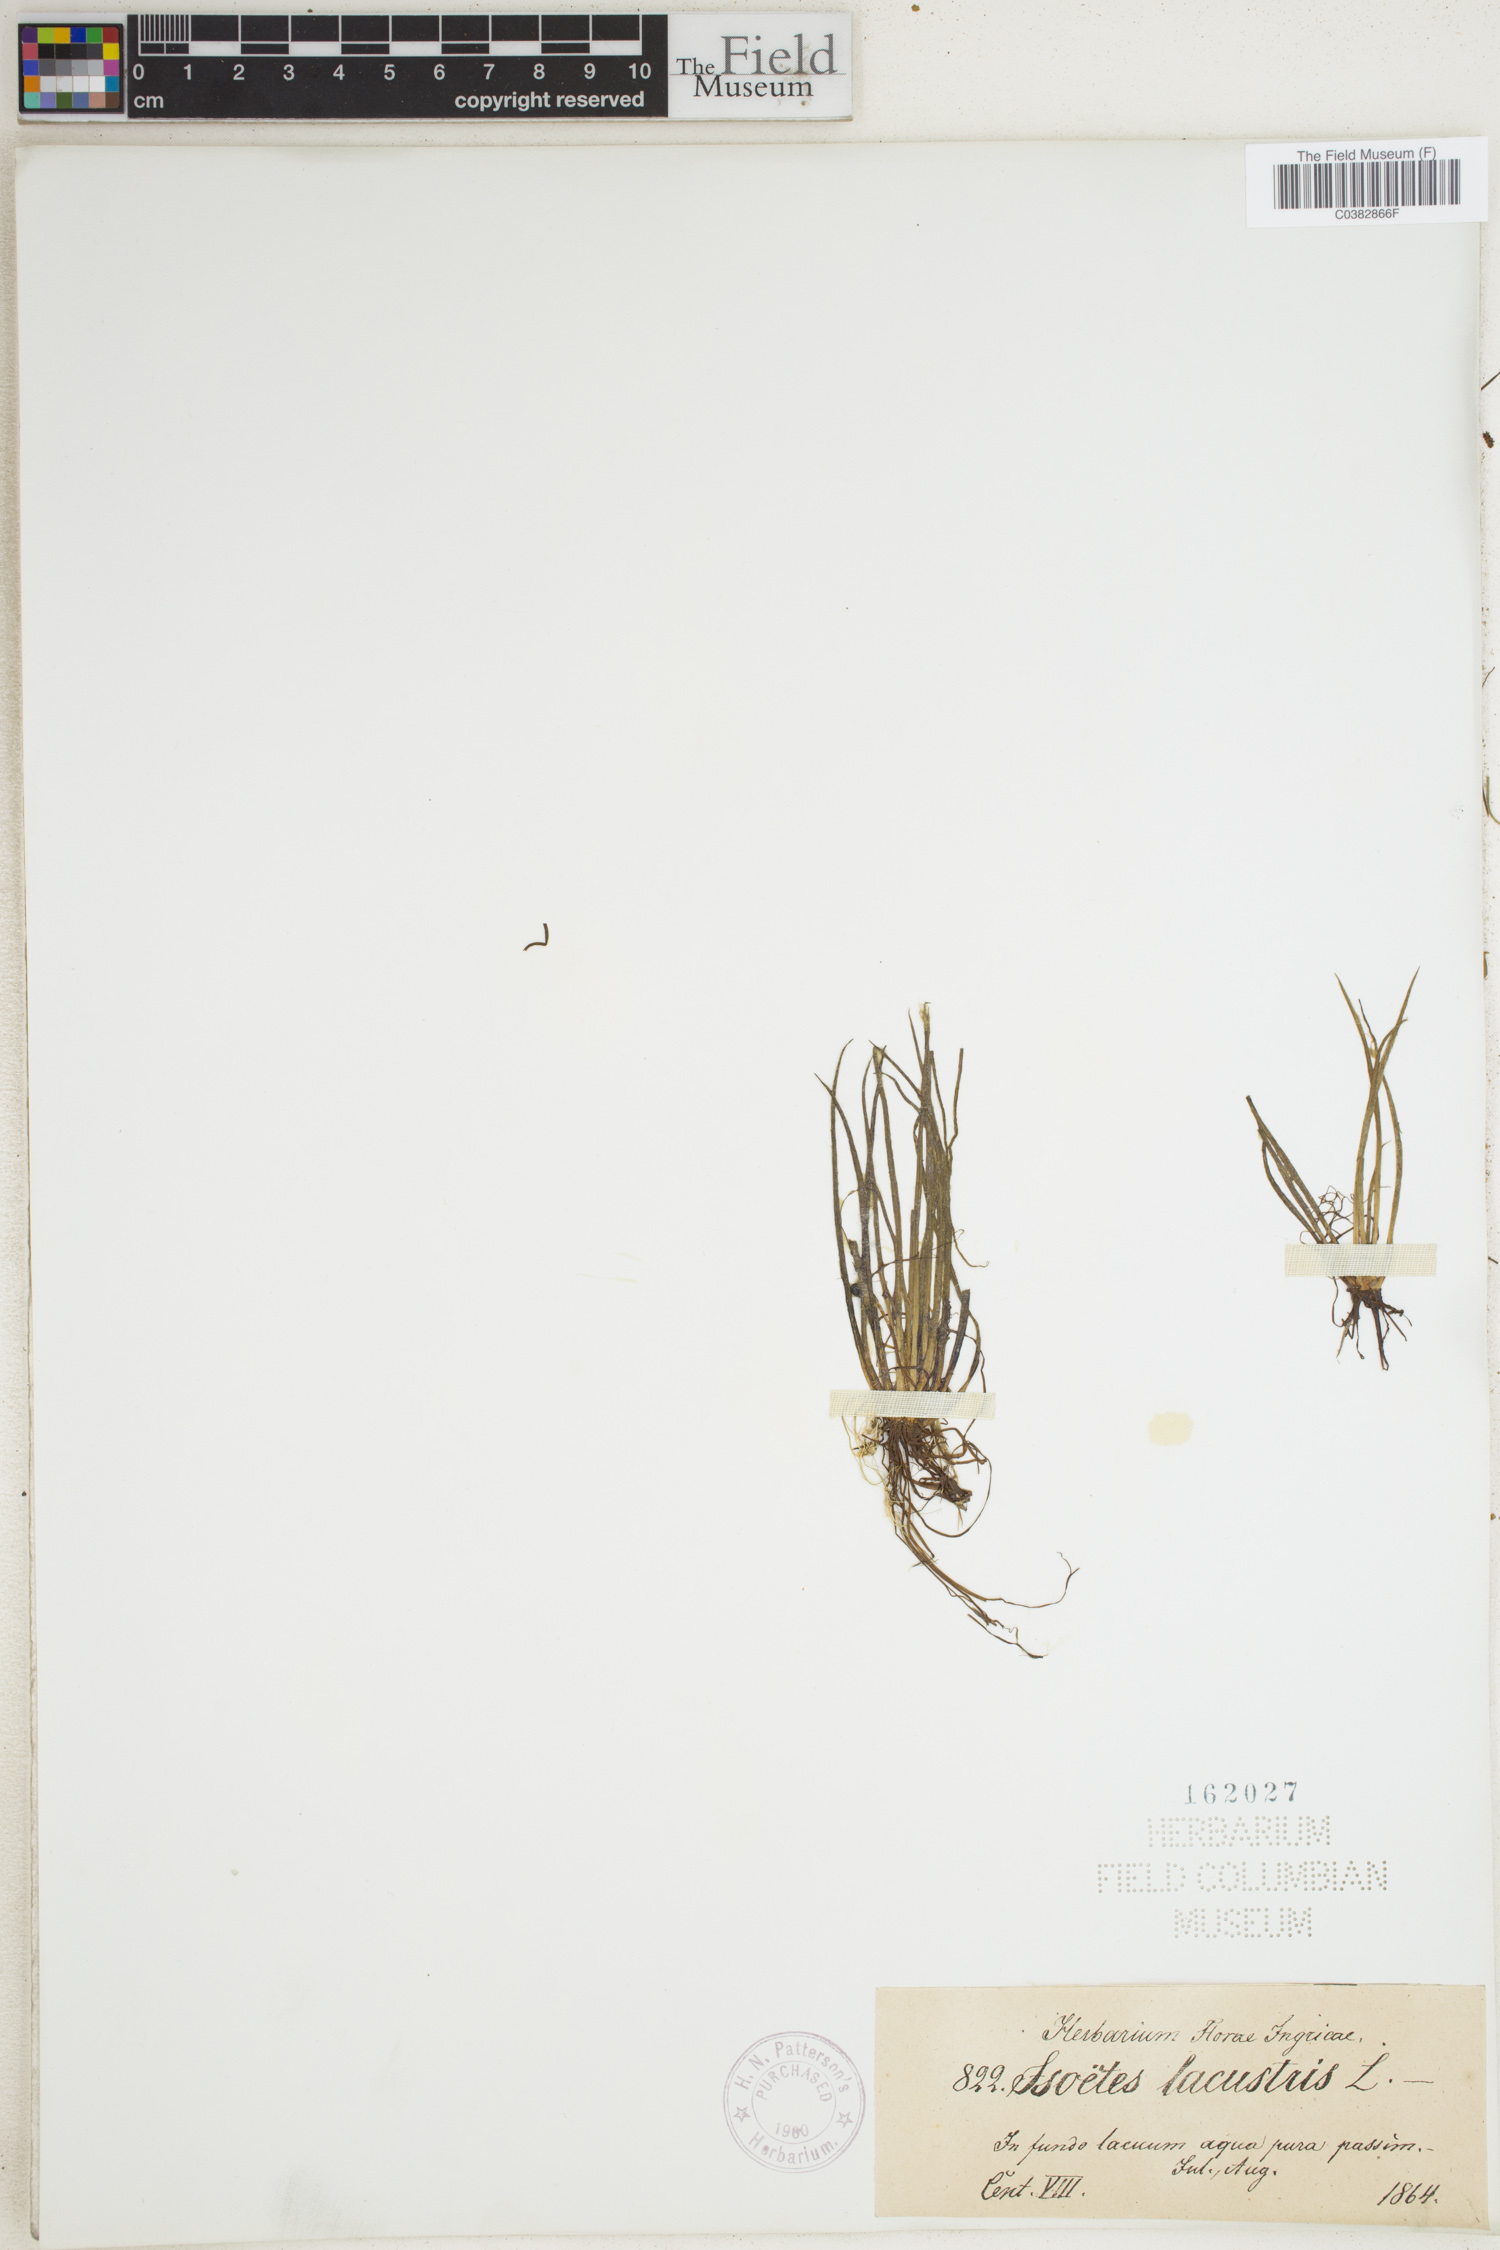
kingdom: Plantae
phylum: Tracheophyta
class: Lycopodiopsida
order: Isoetales
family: Isoetaceae
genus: Isoetes
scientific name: Isoetes lacustris
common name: Common quillwort
